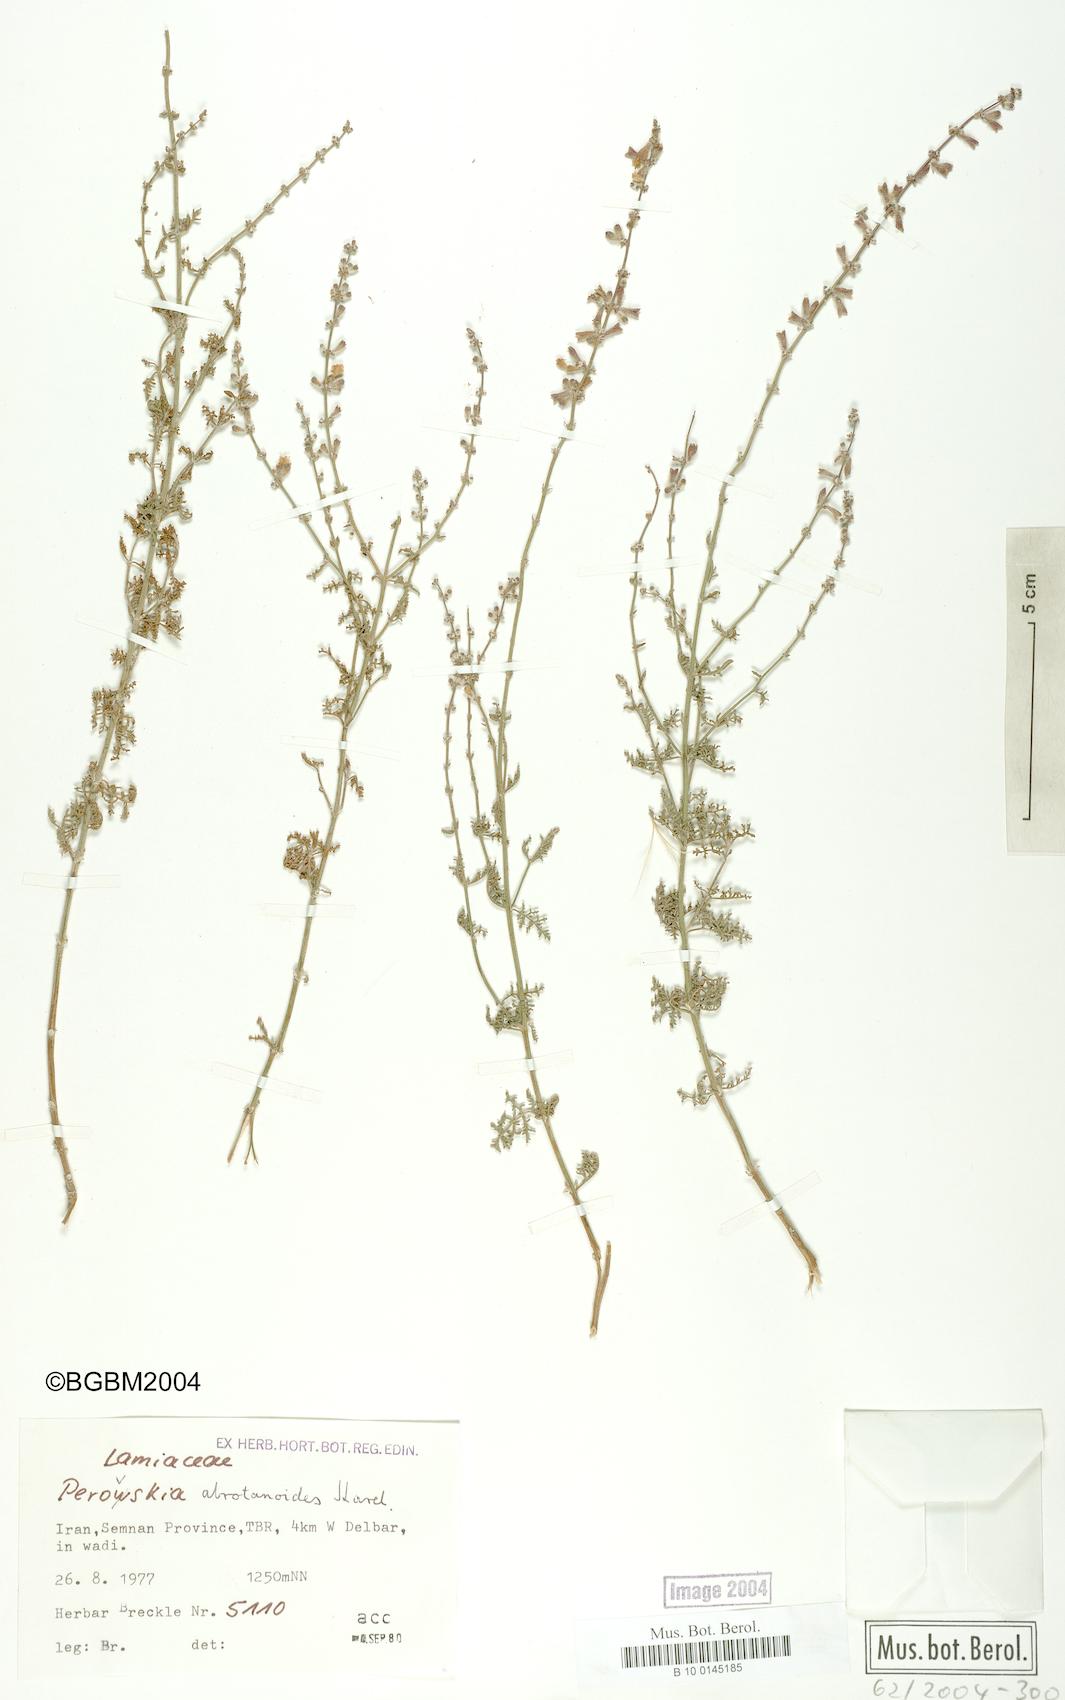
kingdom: Plantae
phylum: Tracheophyta
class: Magnoliopsida
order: Lamiales
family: Lamiaceae
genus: Salvia
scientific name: Salvia abrotanoides
